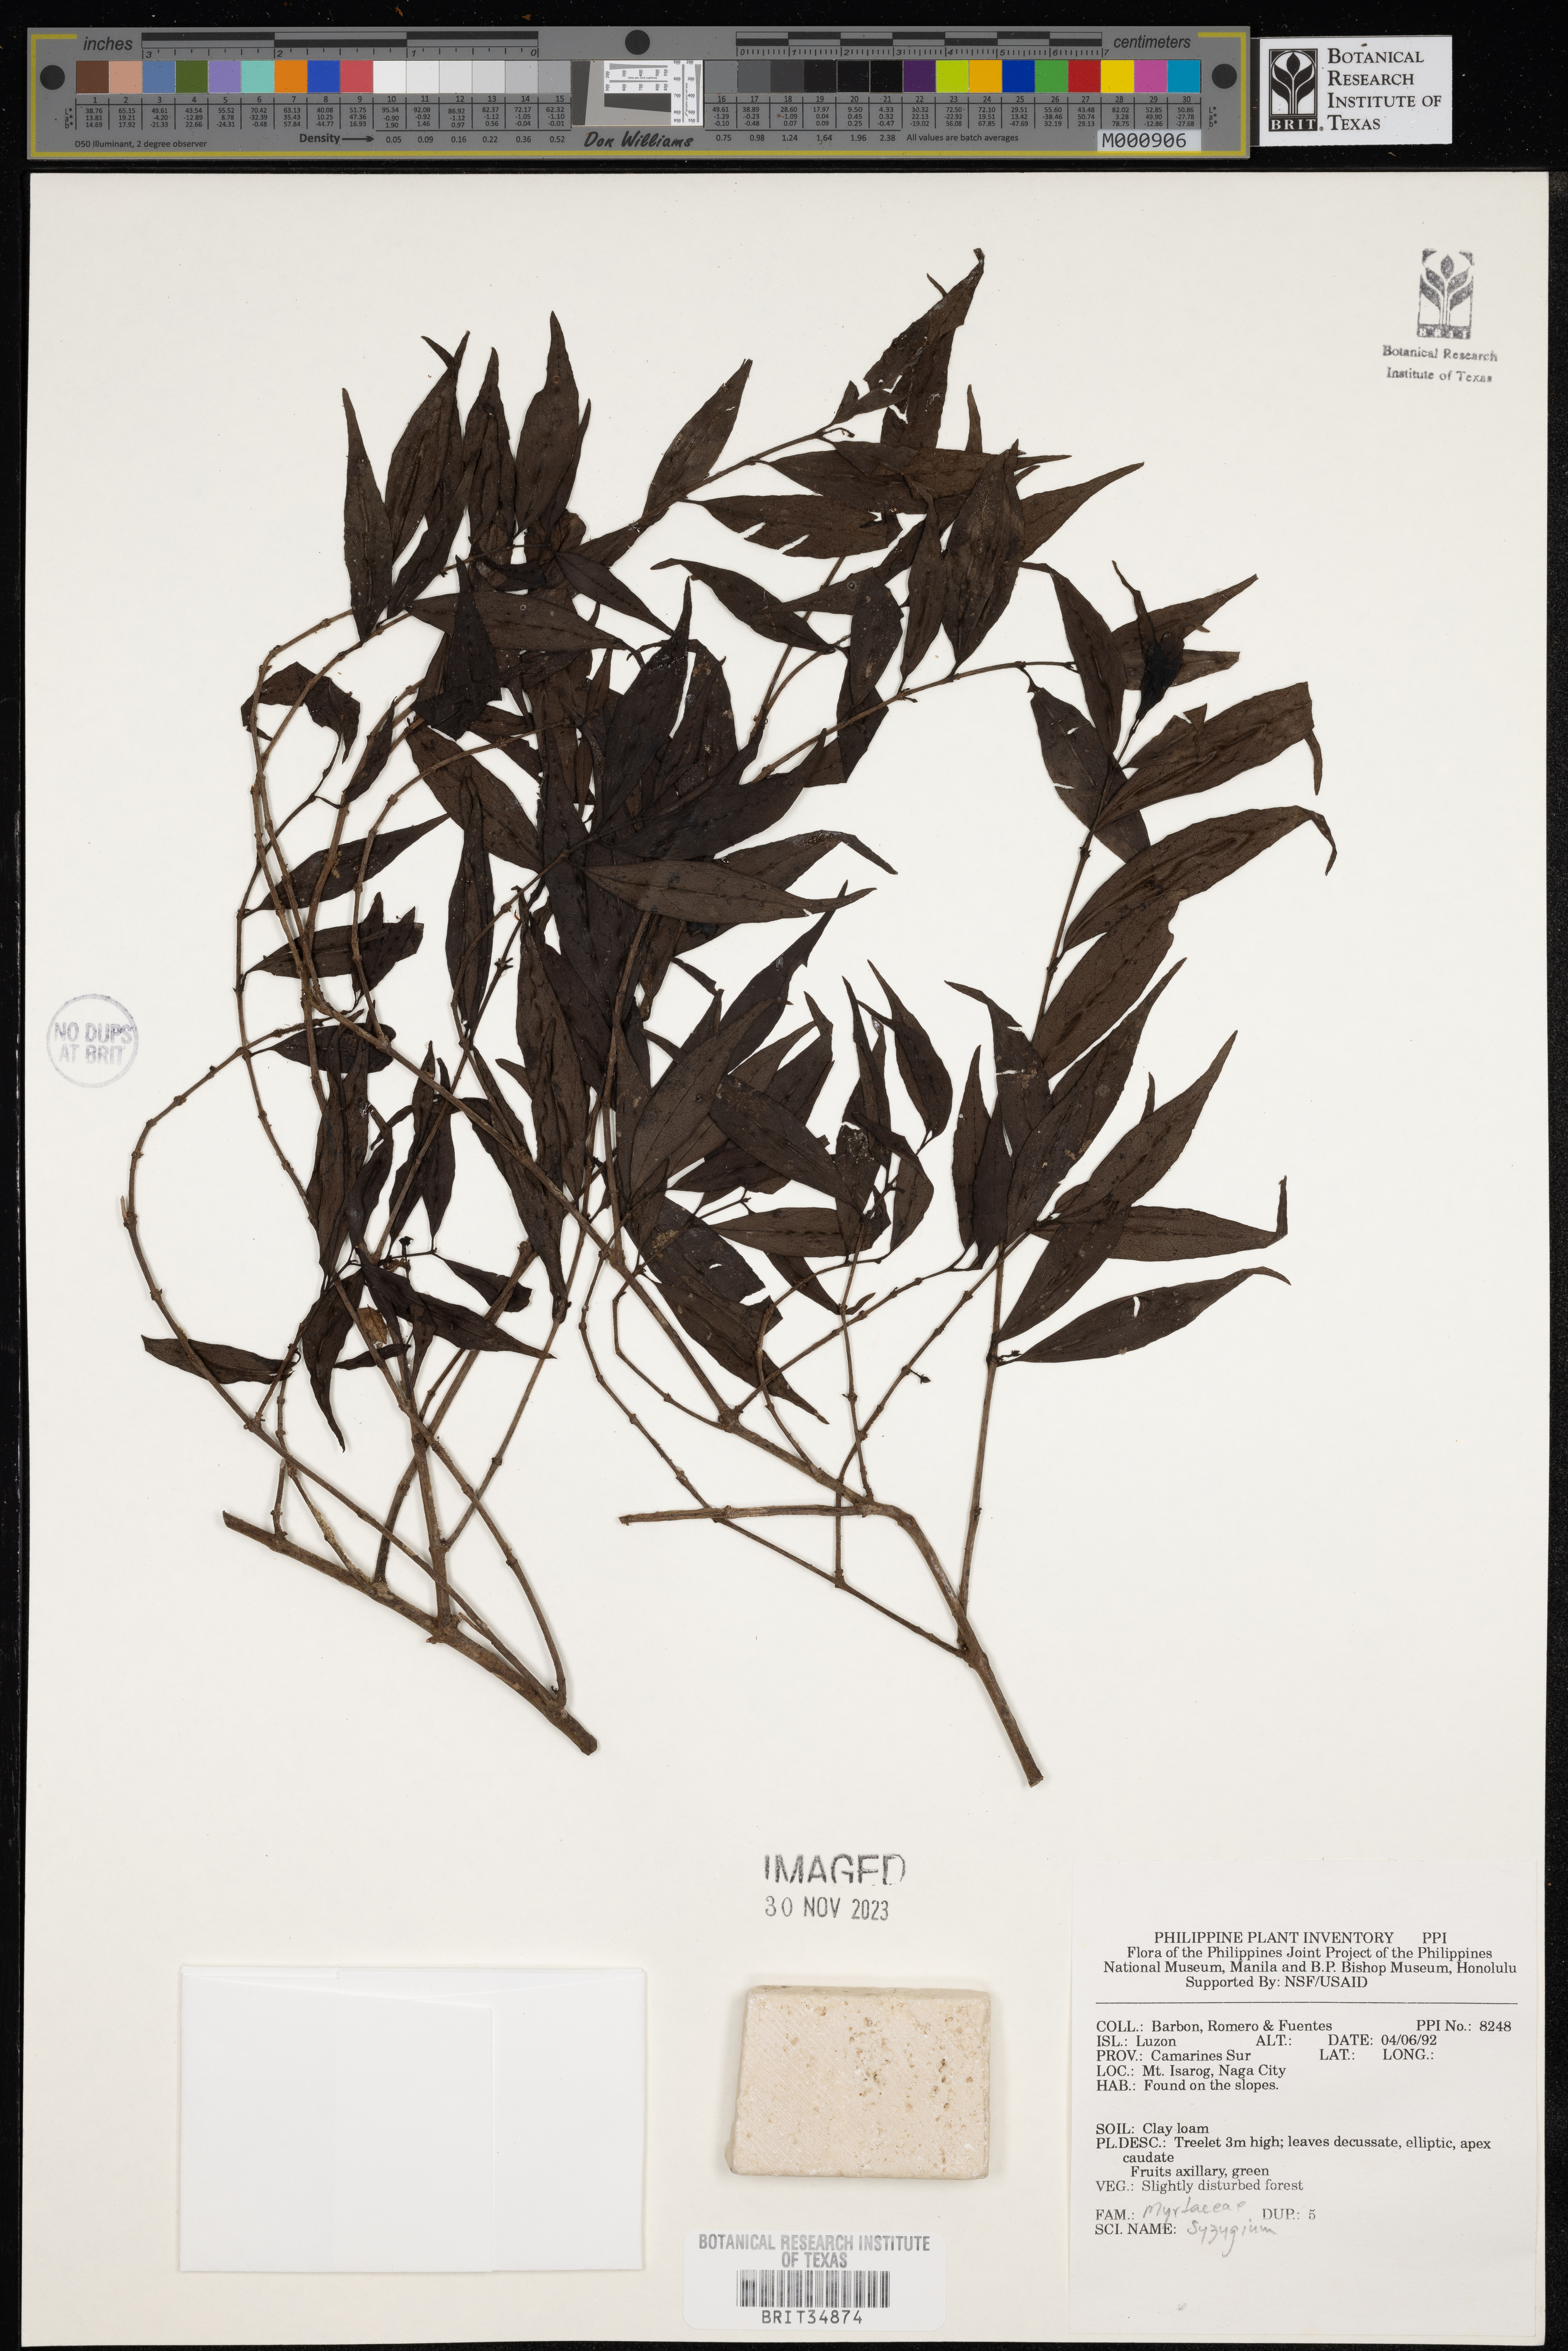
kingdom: Plantae
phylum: Tracheophyta
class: Magnoliopsida
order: Myrtales
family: Myrtaceae
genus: Syzygium
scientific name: Syzygium
